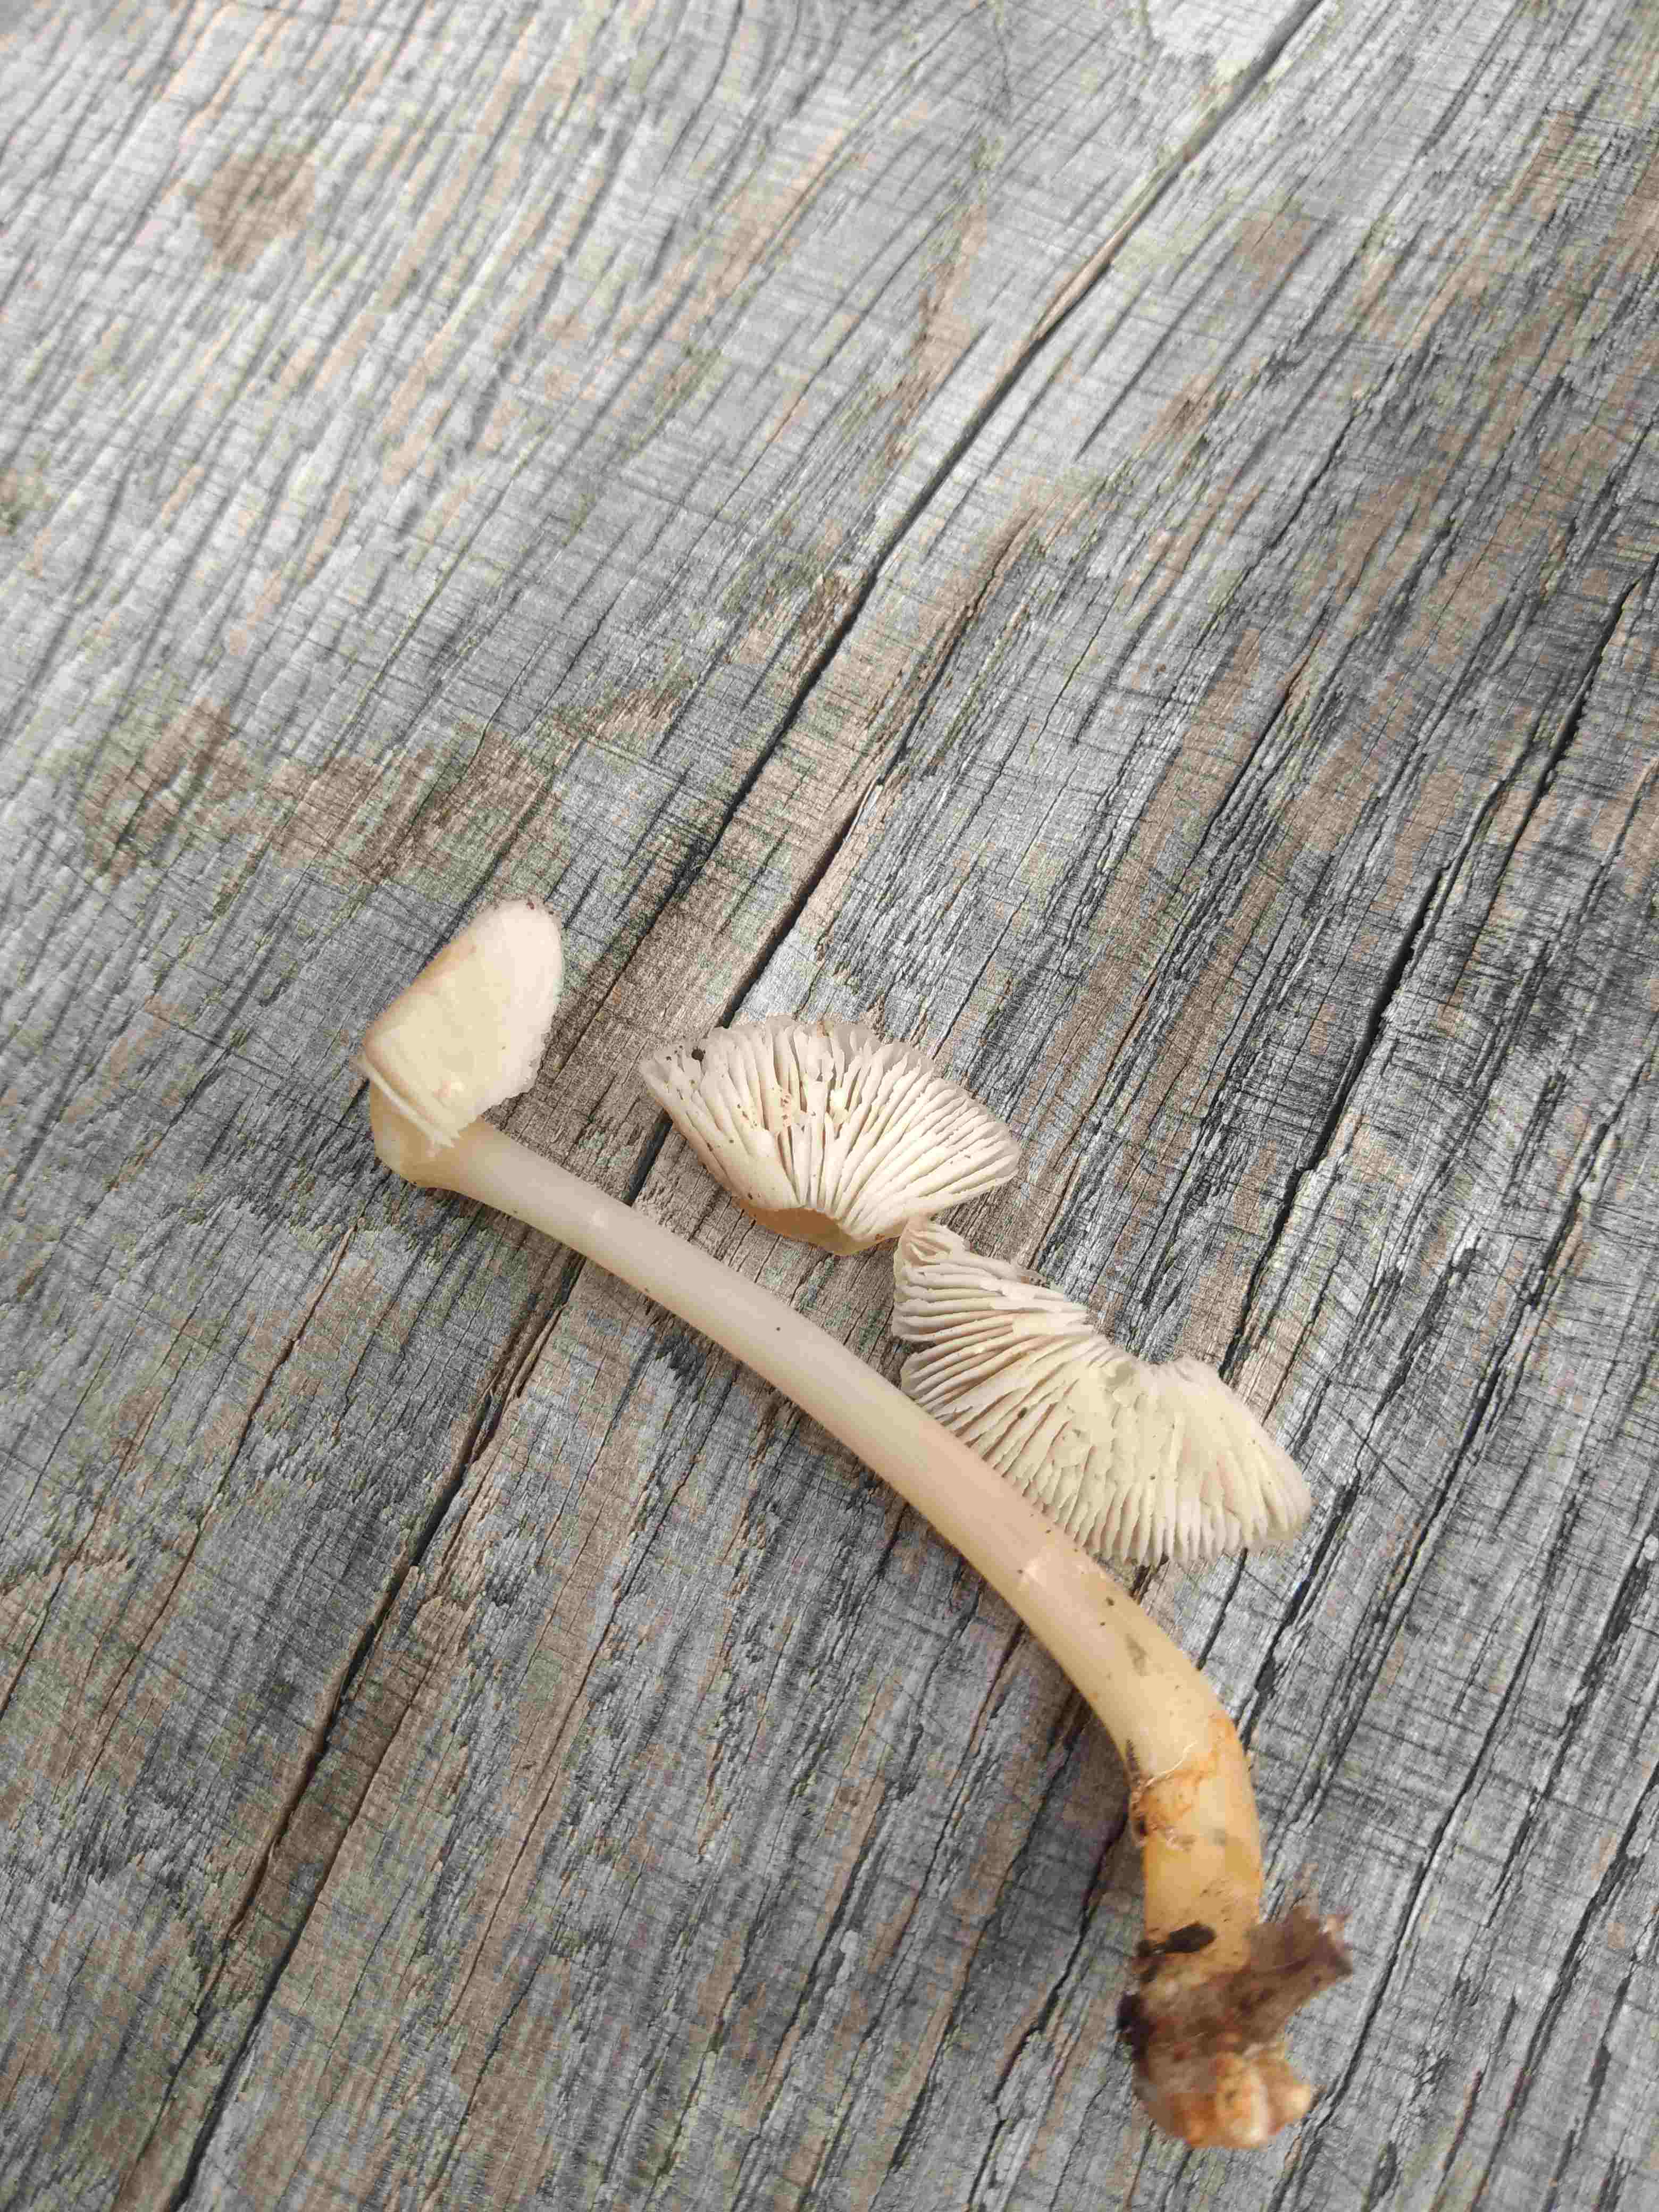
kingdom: Fungi
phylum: Basidiomycota
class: Agaricomycetes
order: Agaricales
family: Mycenaceae
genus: Mycena
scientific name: Mycena
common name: huesvamp
